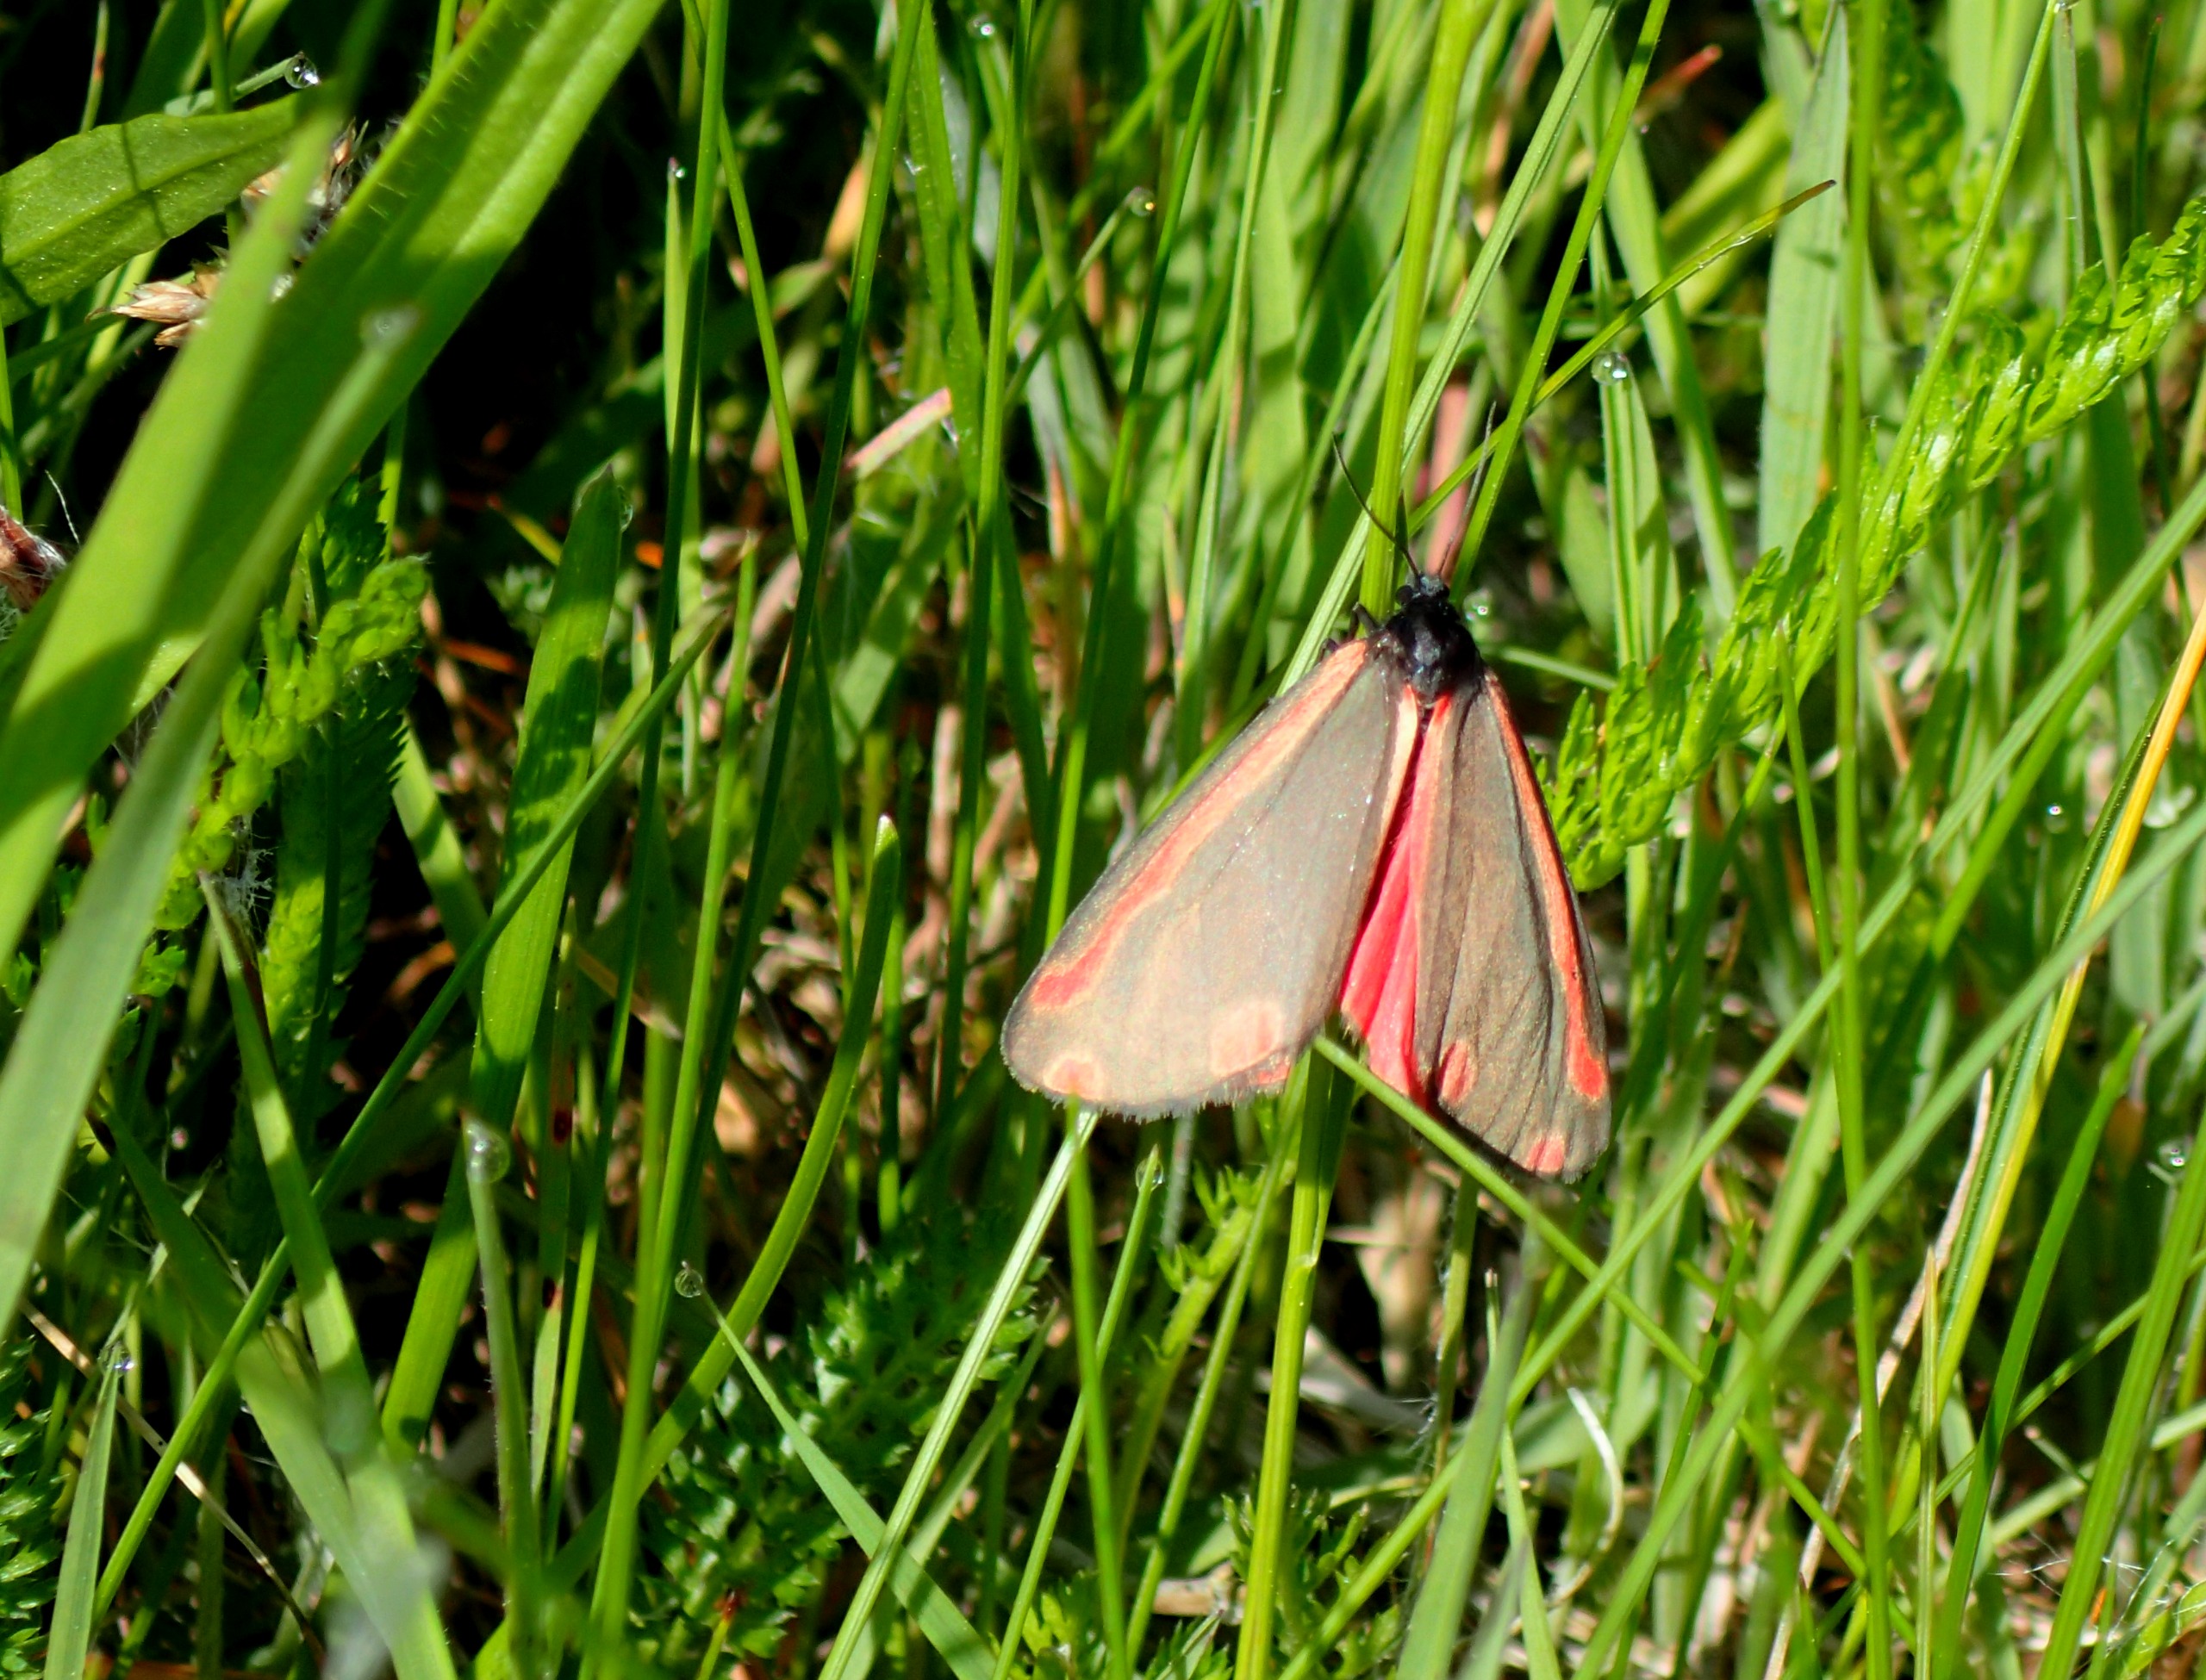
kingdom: Animalia
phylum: Arthropoda
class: Insecta
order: Lepidoptera
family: Erebidae
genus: Tyria
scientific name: Tyria jacobaeae
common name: Blodplet
